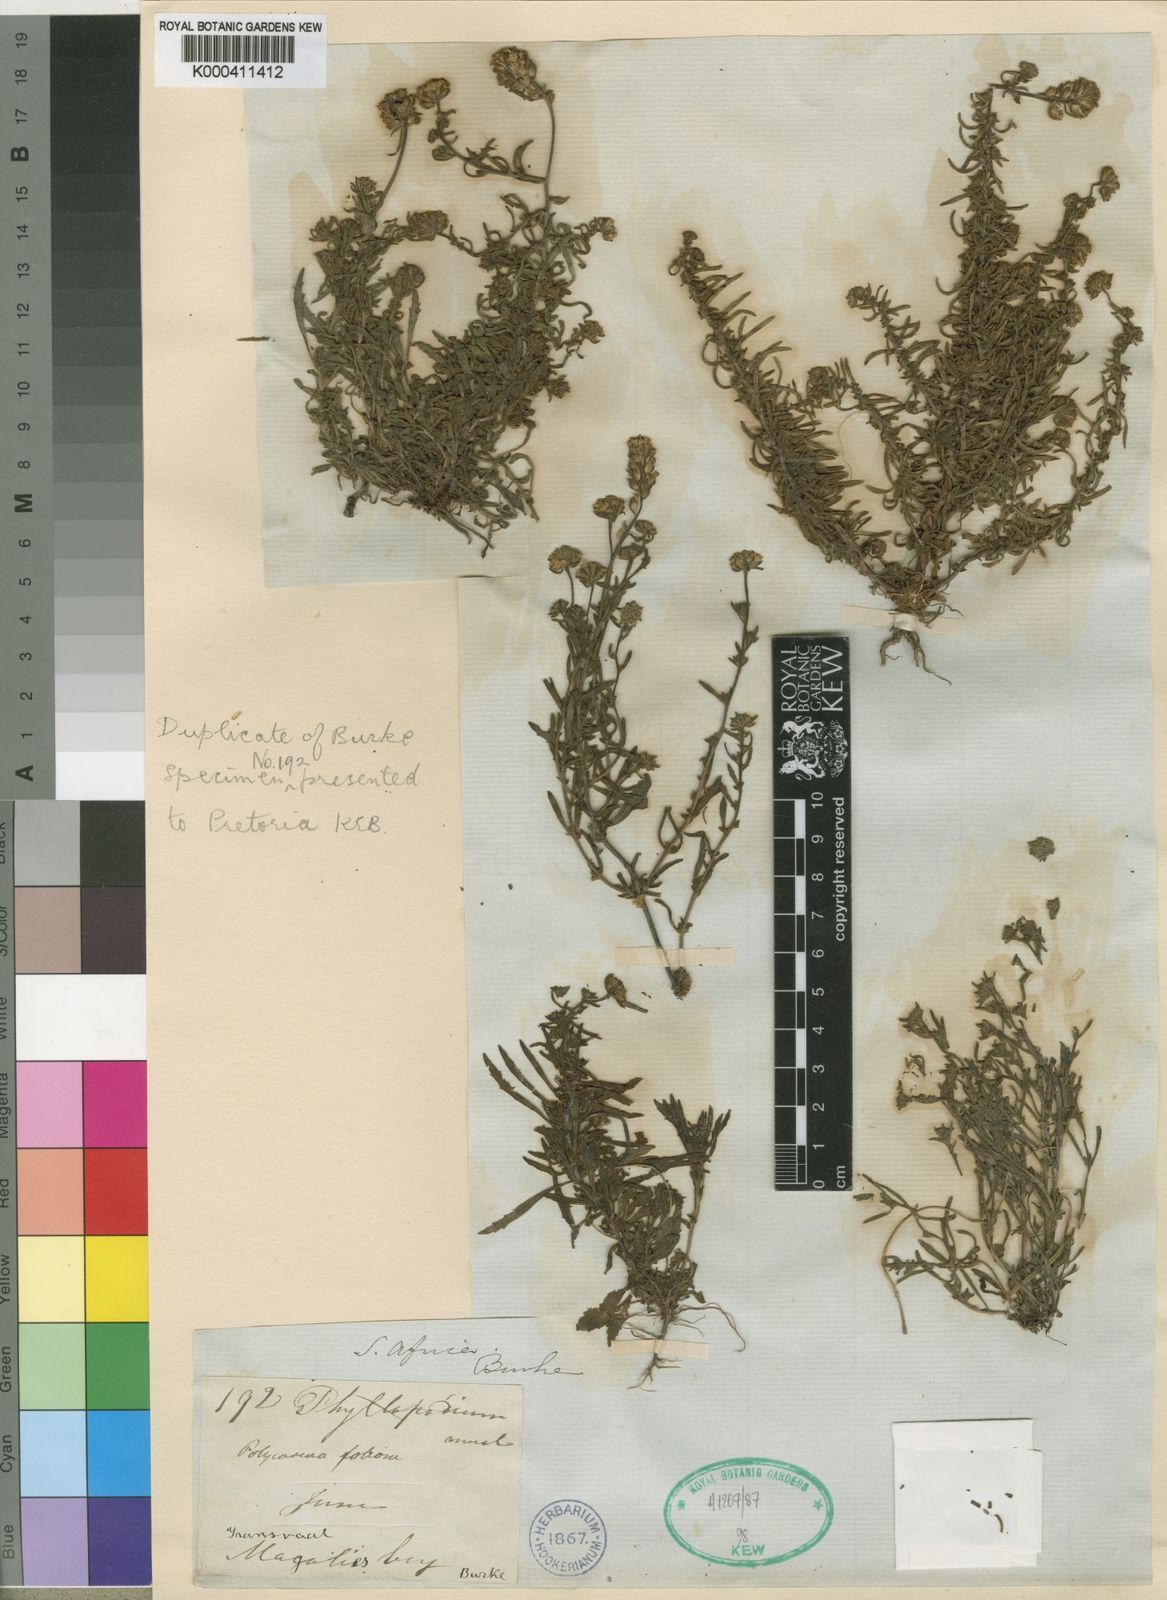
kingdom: Plantae
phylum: Tracheophyta
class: Magnoliopsida
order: Lamiales
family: Scrophulariaceae
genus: Melanospermum
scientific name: Melanospermum foliosum
